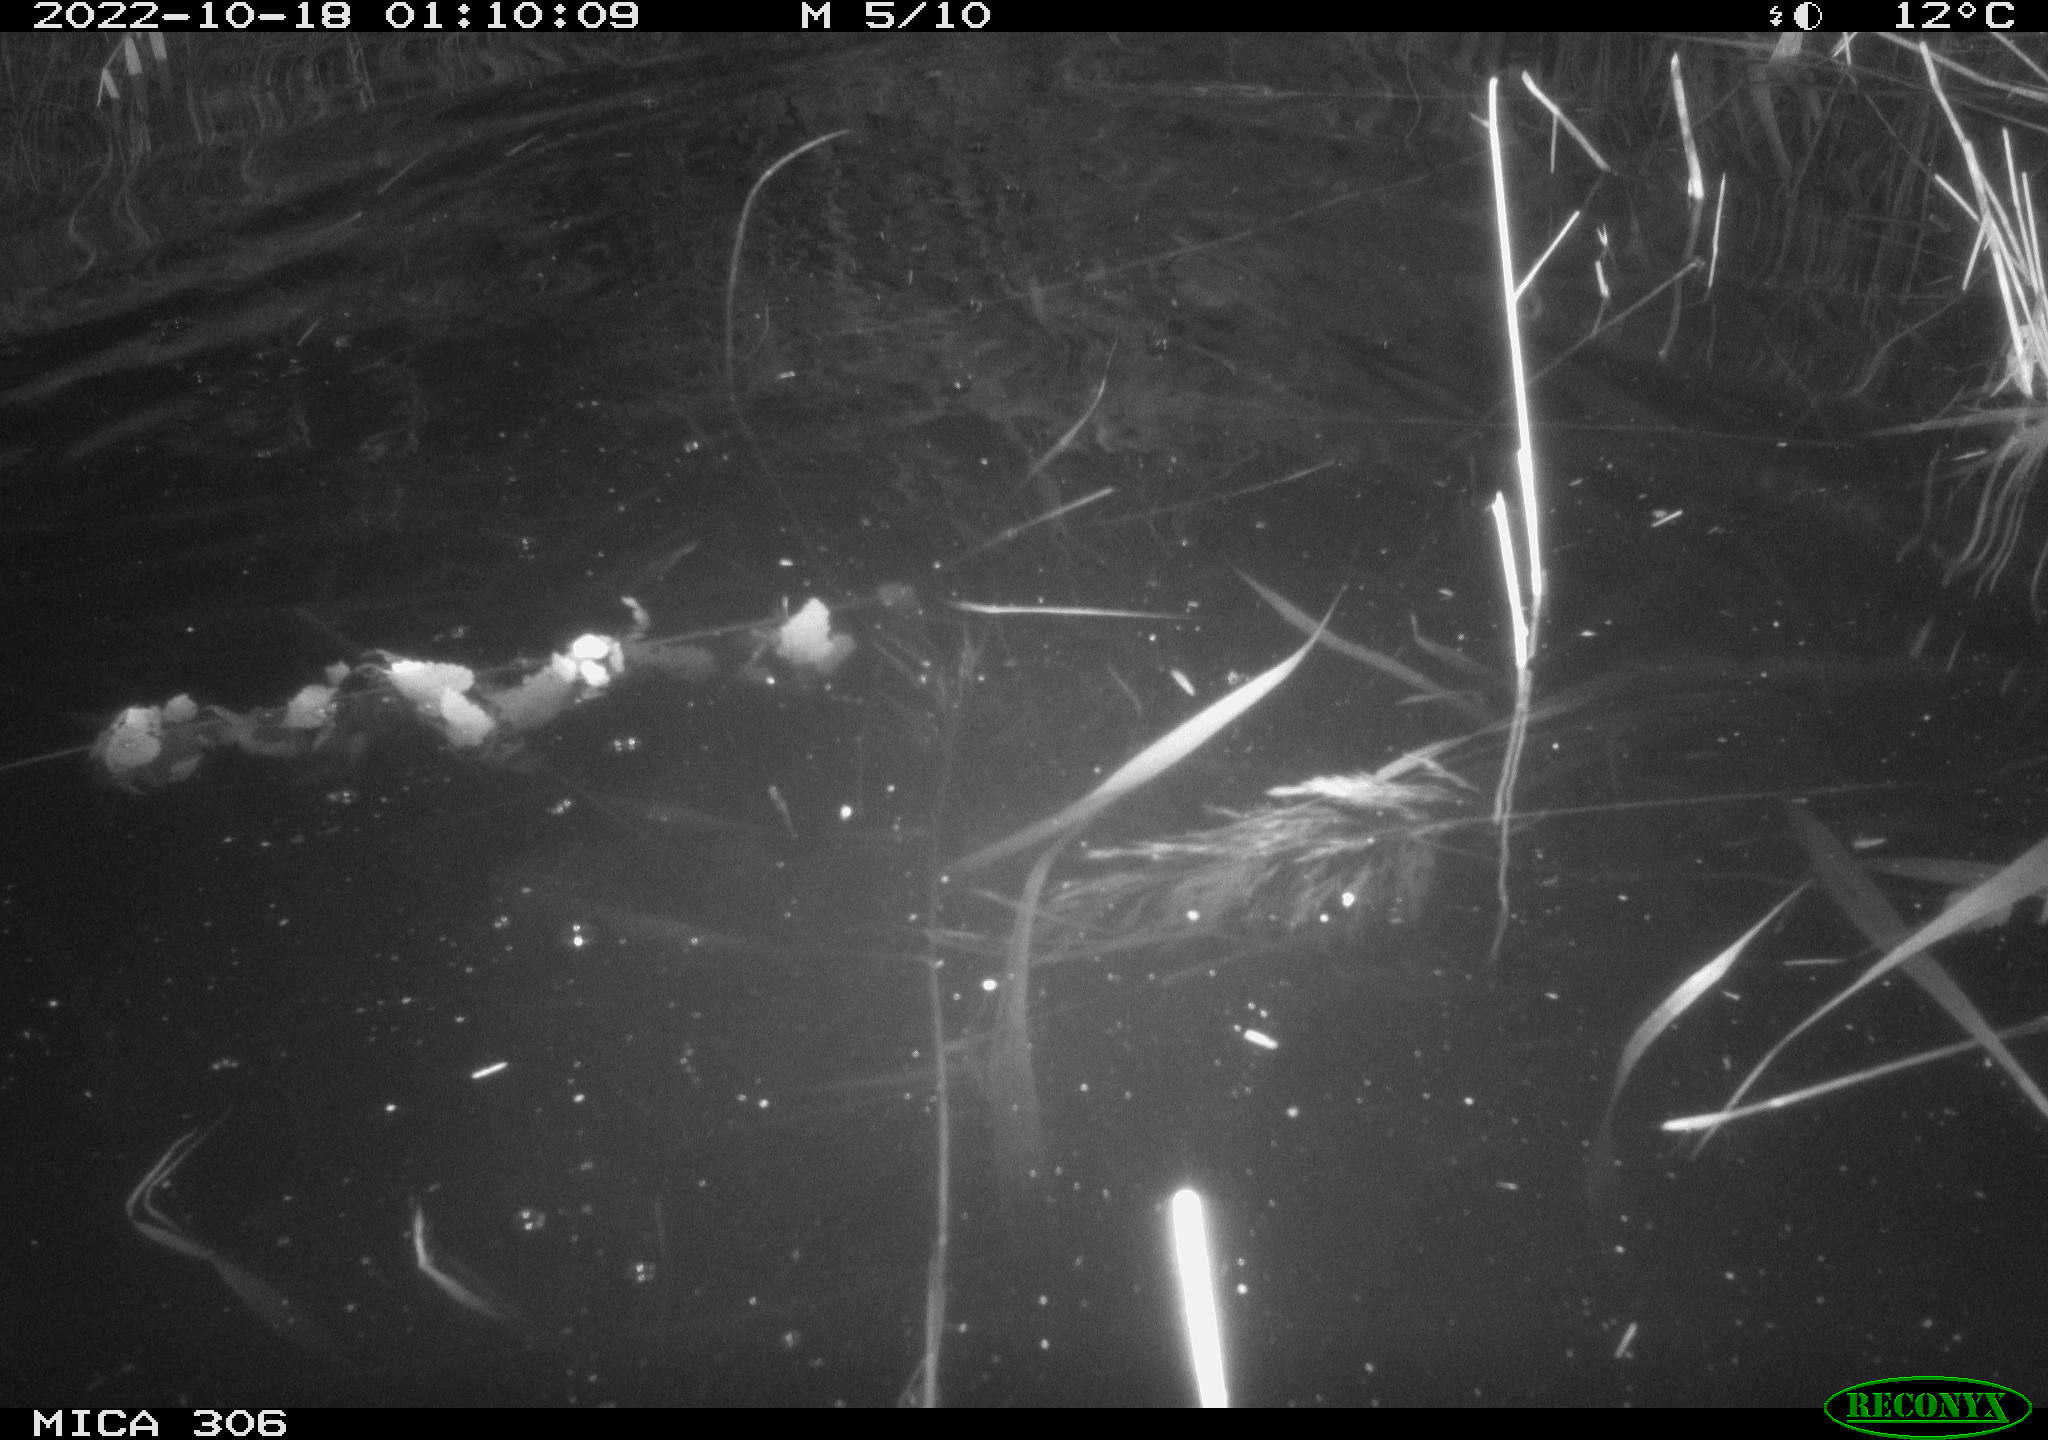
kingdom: Animalia
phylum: Chordata
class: Mammalia
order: Rodentia
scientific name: Rodentia
